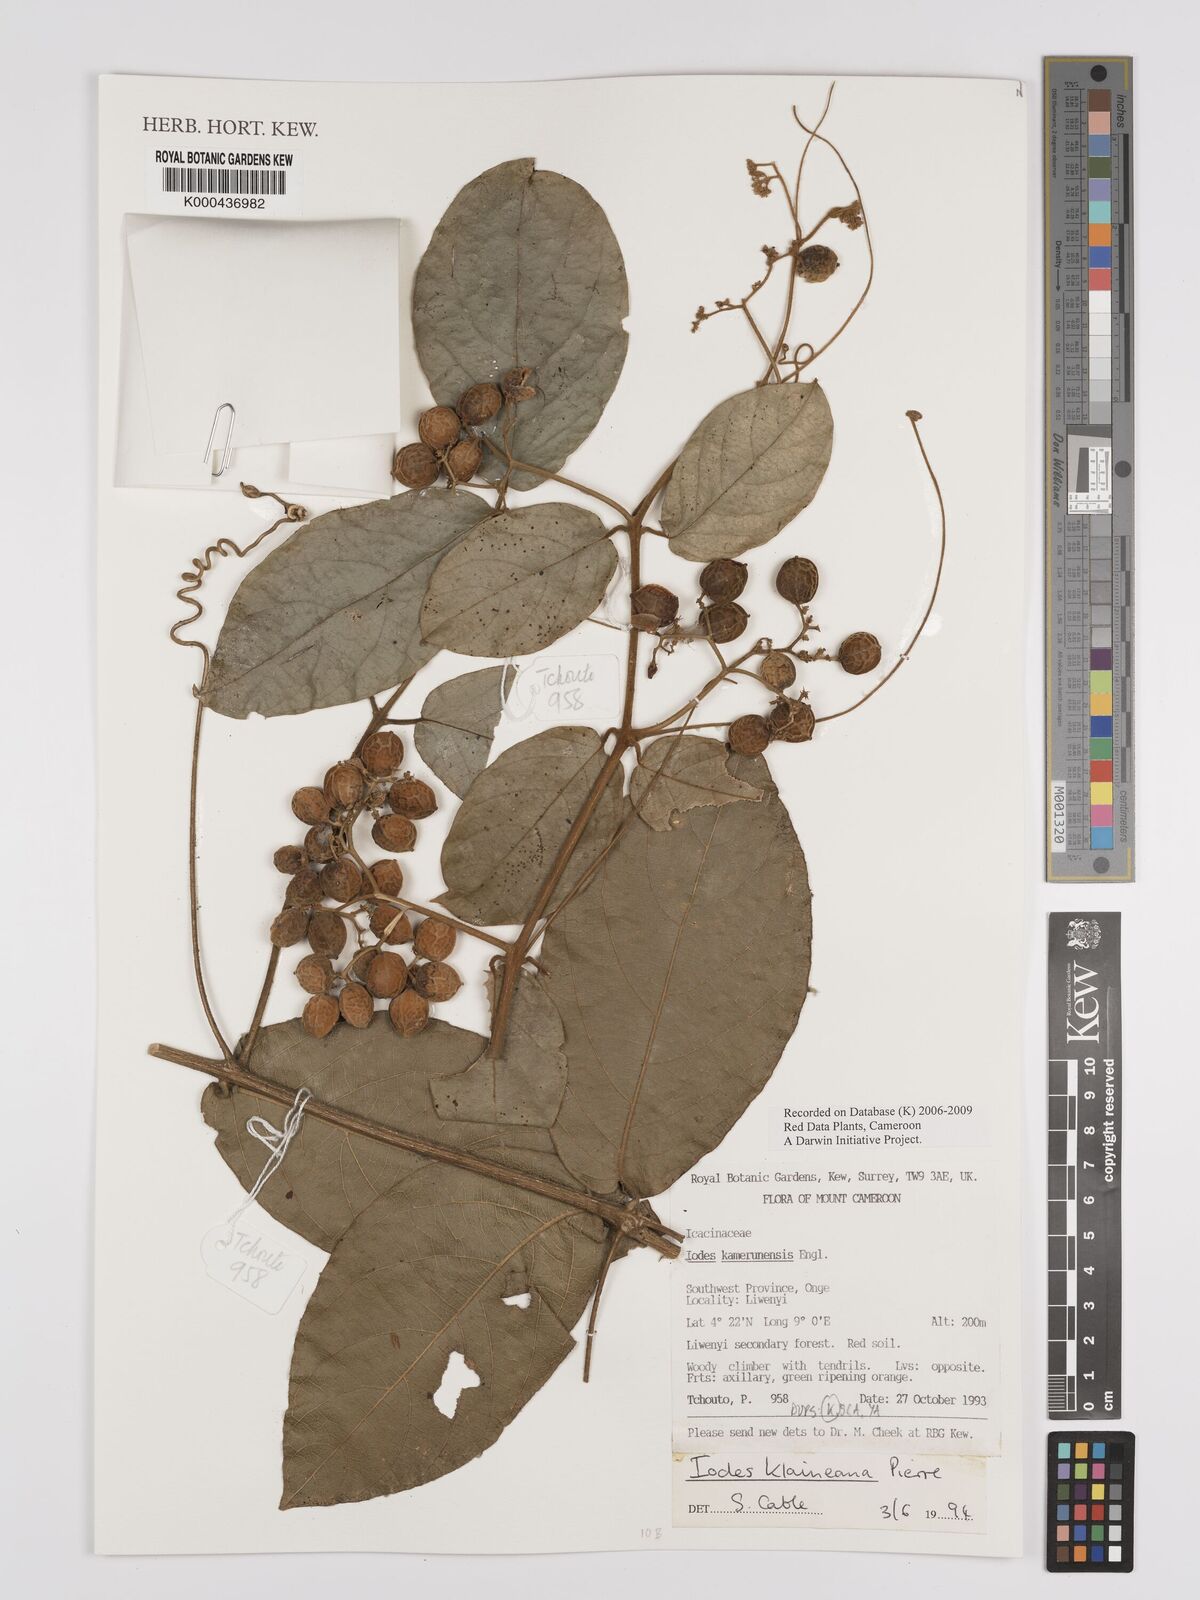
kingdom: Plantae
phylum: Tracheophyta
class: Magnoliopsida
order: Icacinales
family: Icacinaceae
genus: Iodes
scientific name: Iodes klaineana
